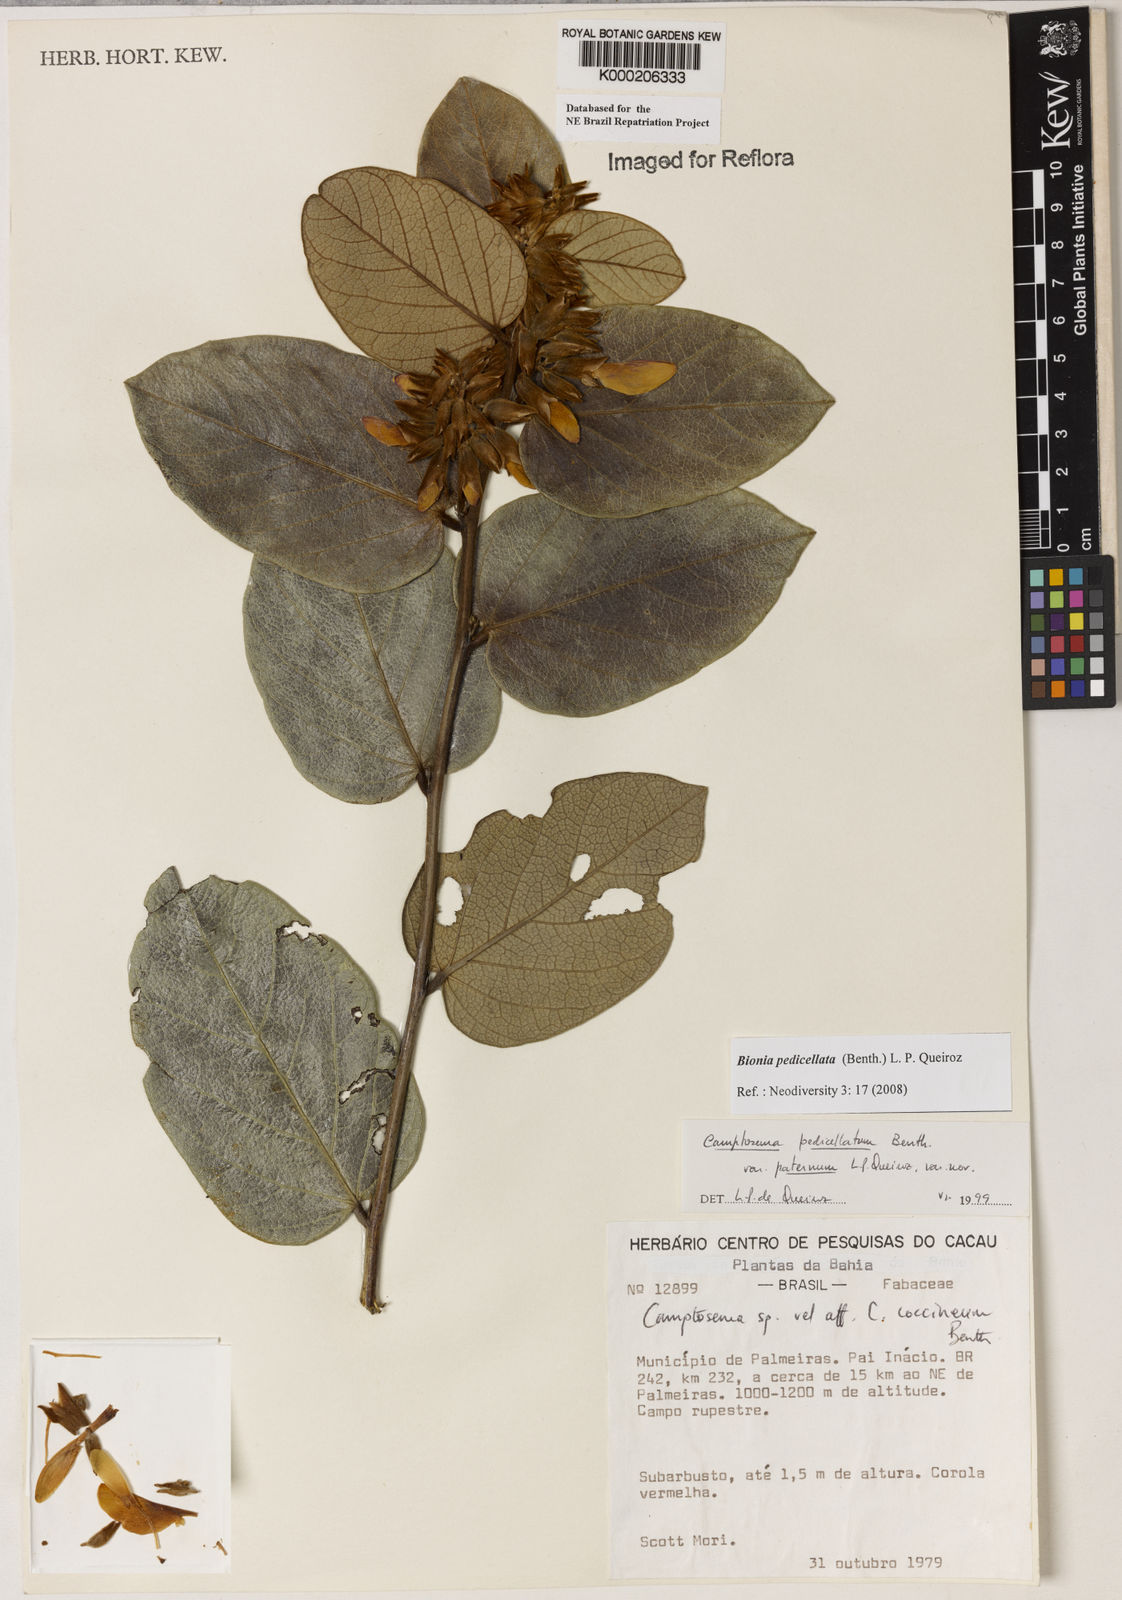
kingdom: Plantae
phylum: Tracheophyta
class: Magnoliopsida
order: Fabales
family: Fabaceae
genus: Camptosema
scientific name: Camptosema pedicellatum
